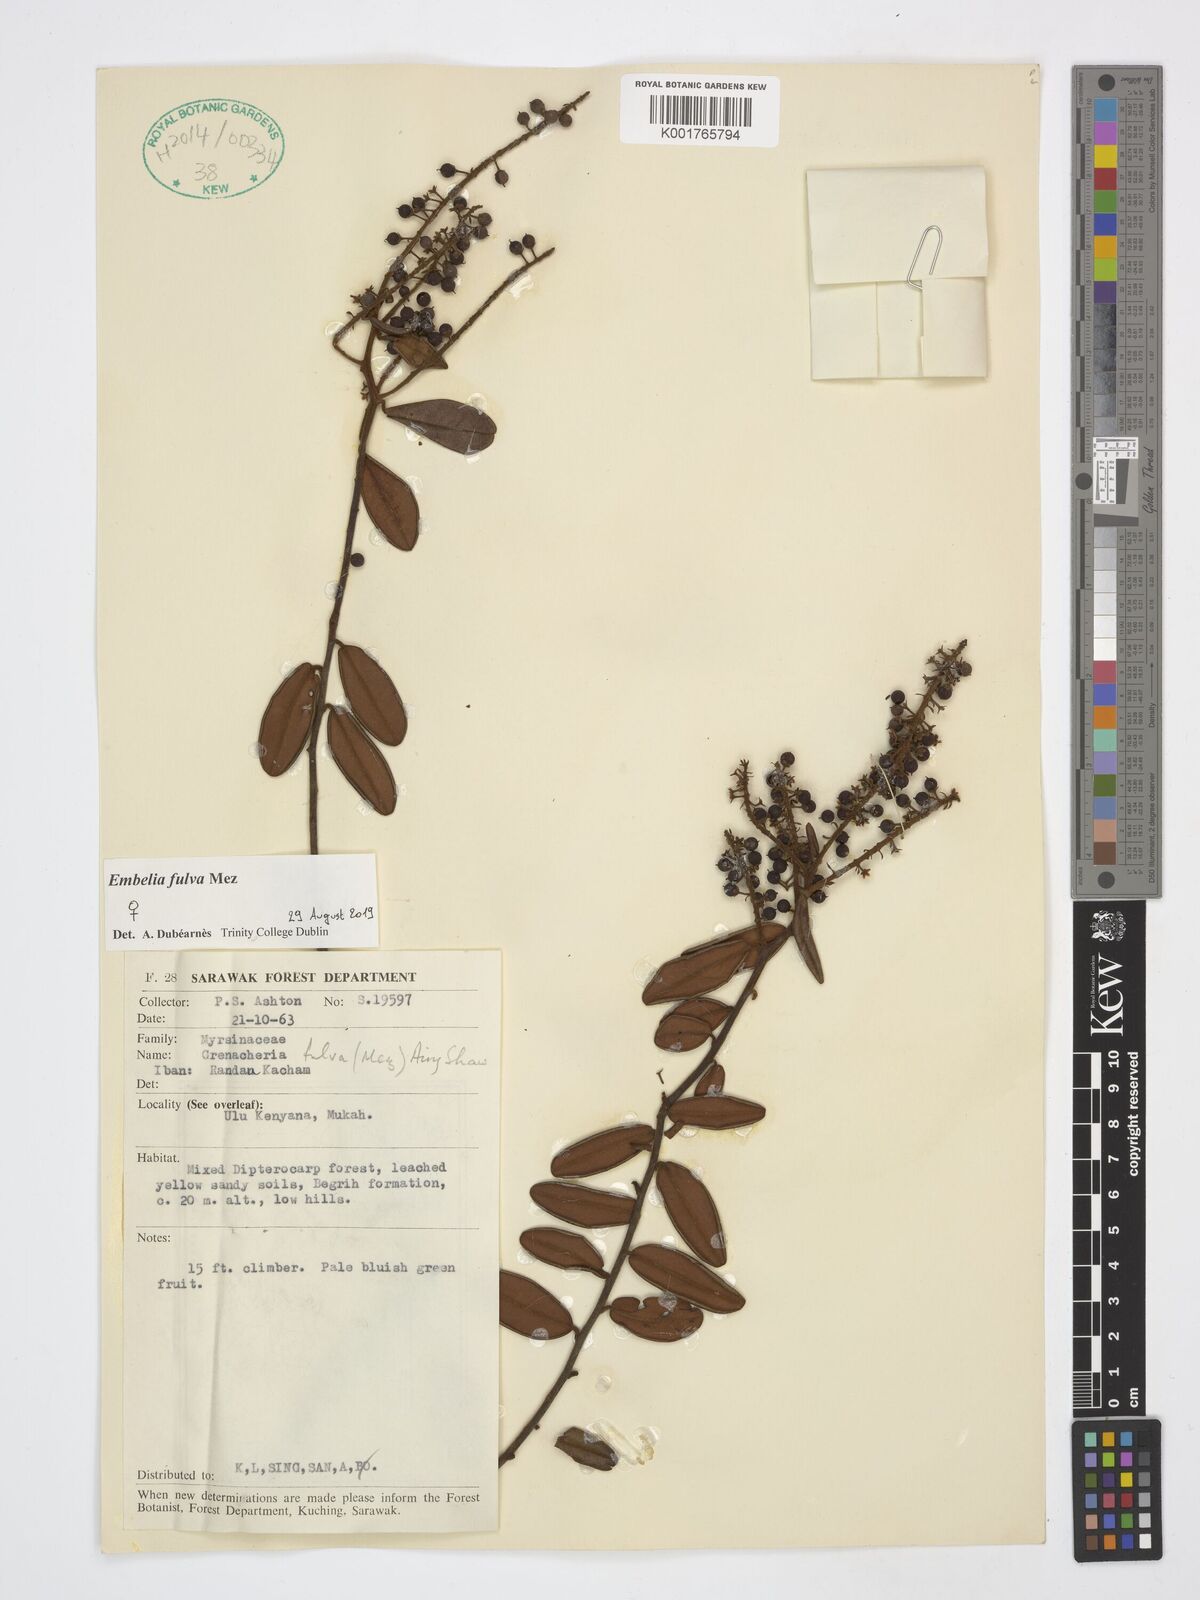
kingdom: Plantae
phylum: Tracheophyta
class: Magnoliopsida
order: Ericales
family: Primulaceae
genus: Grenacheria
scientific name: Grenacheria fulva
